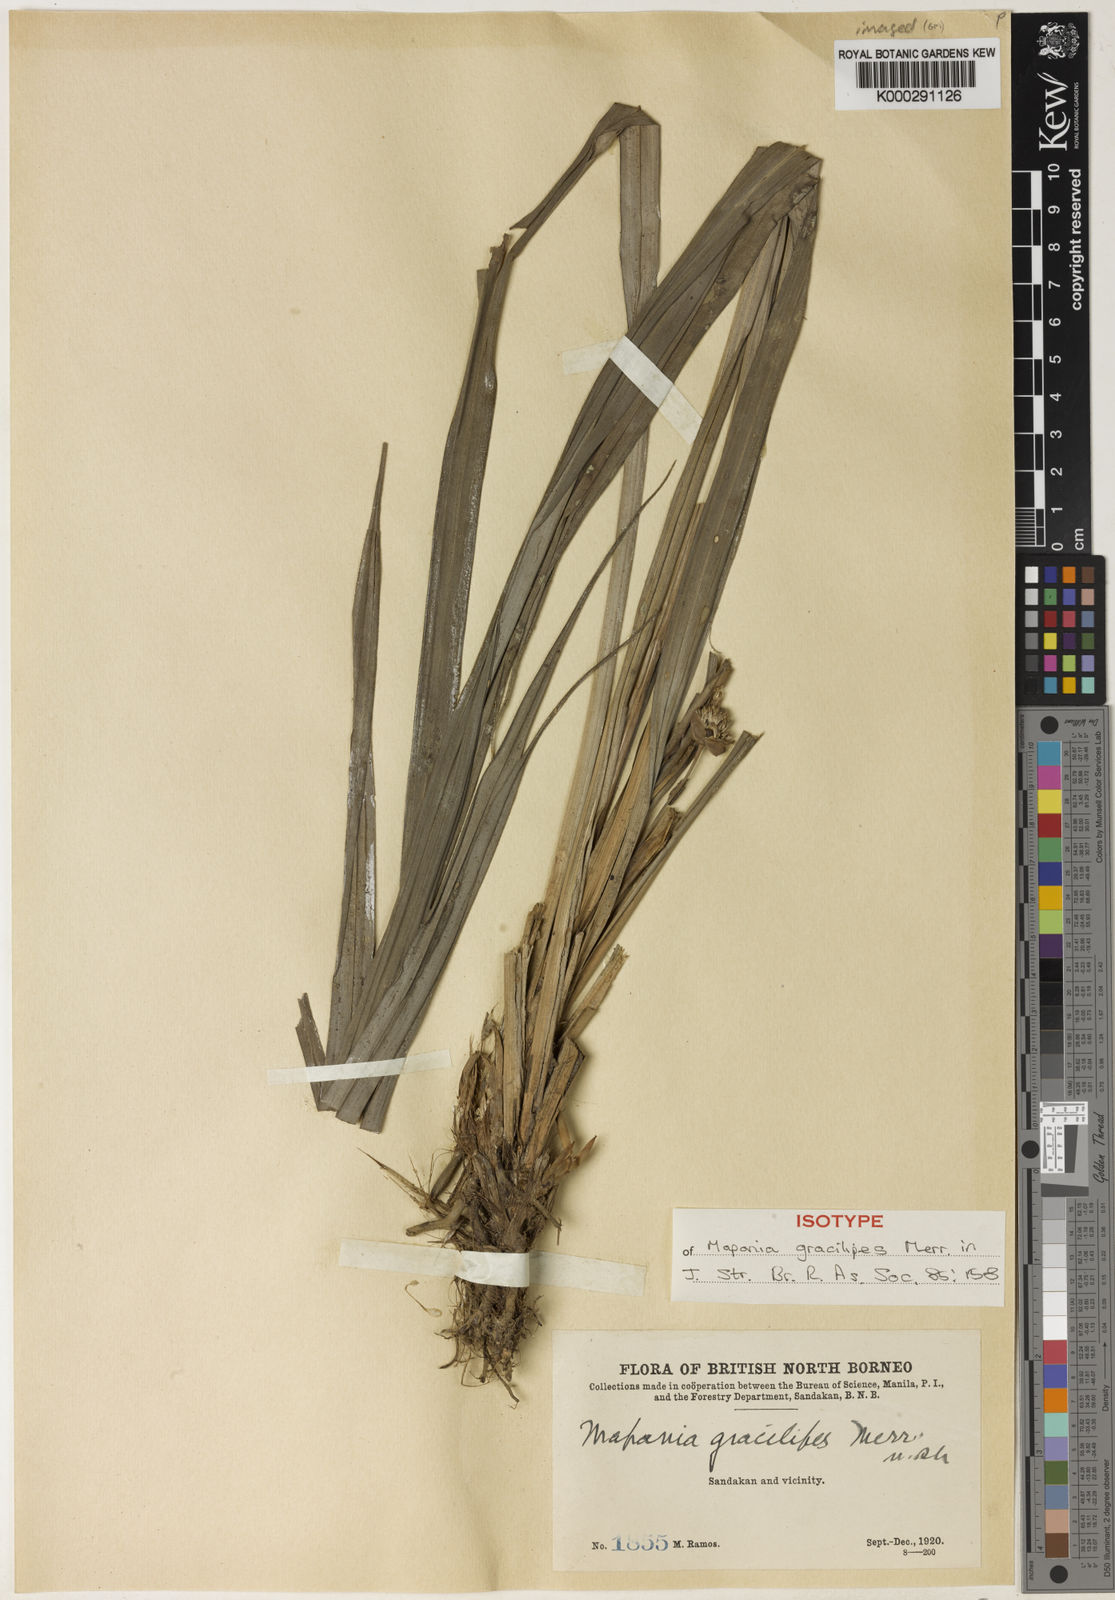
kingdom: Plantae
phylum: Tracheophyta
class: Liliopsida
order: Poales
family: Cyperaceae
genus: Mapania
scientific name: Mapania
